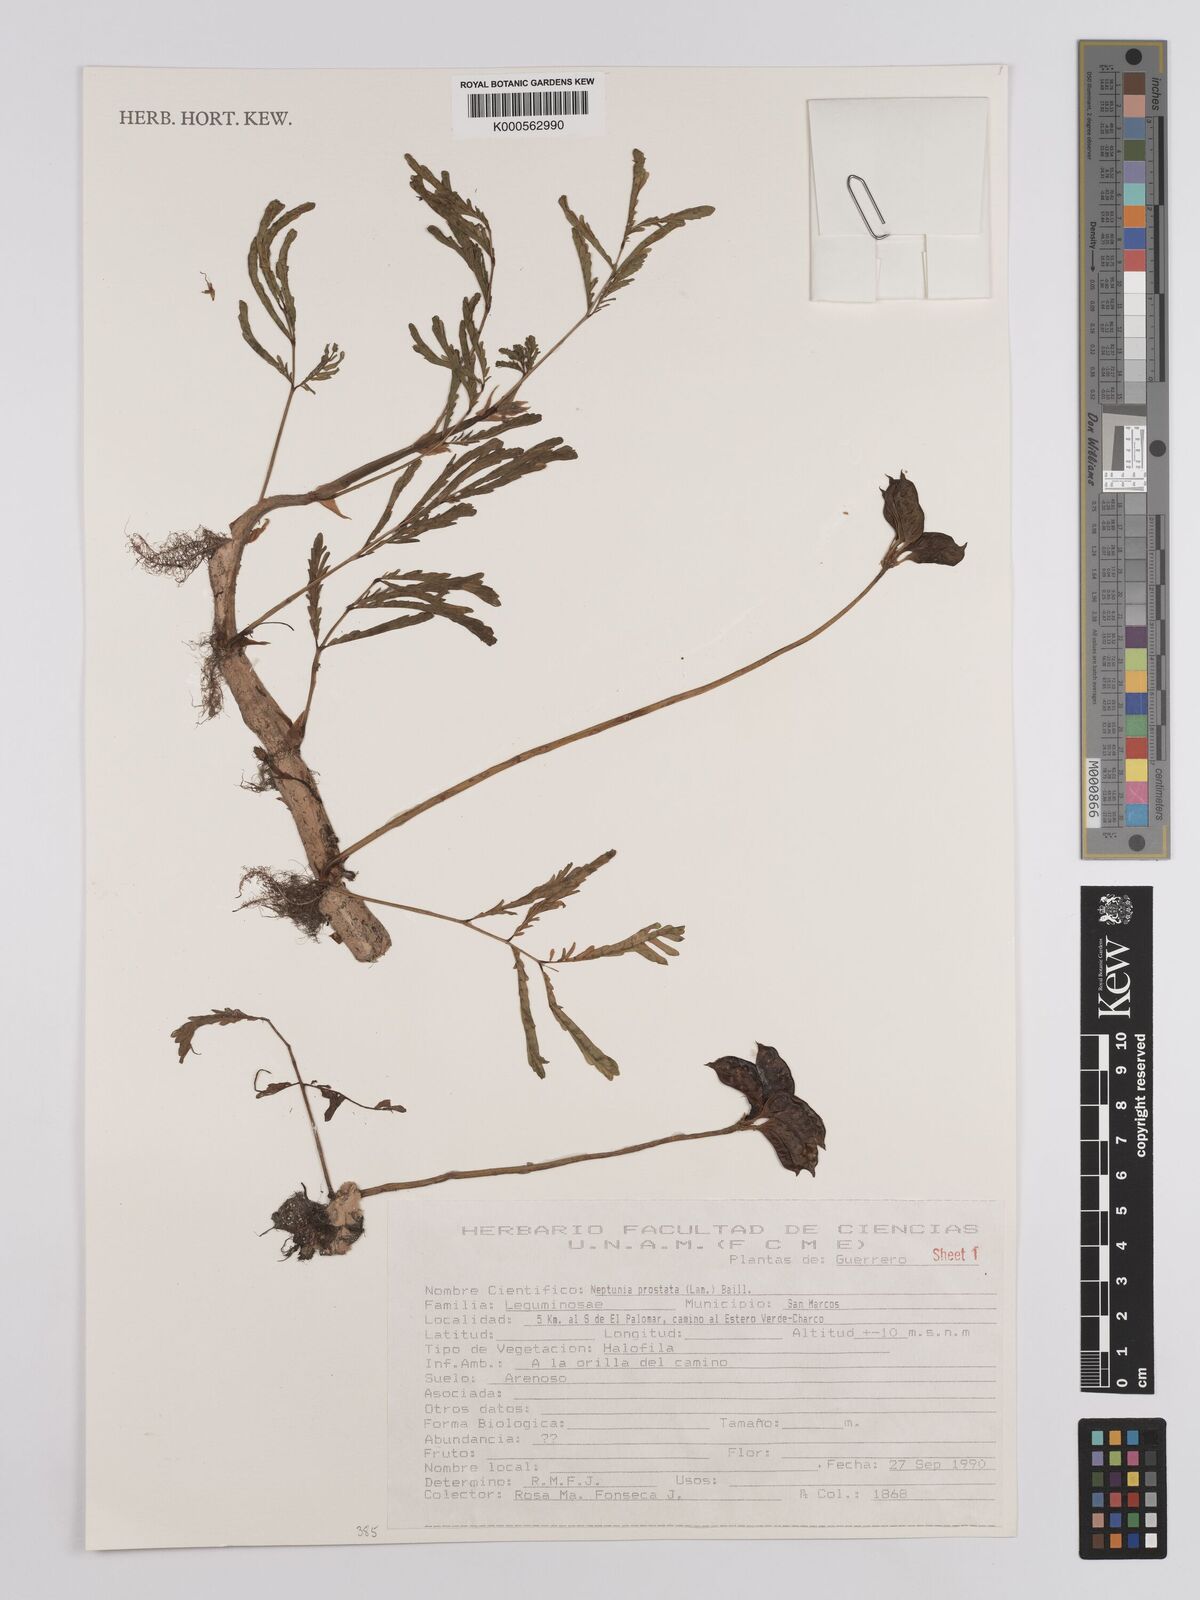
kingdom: Plantae
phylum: Tracheophyta
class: Magnoliopsida
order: Fabales
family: Fabaceae
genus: Neptunia
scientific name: Neptunia prostrata
